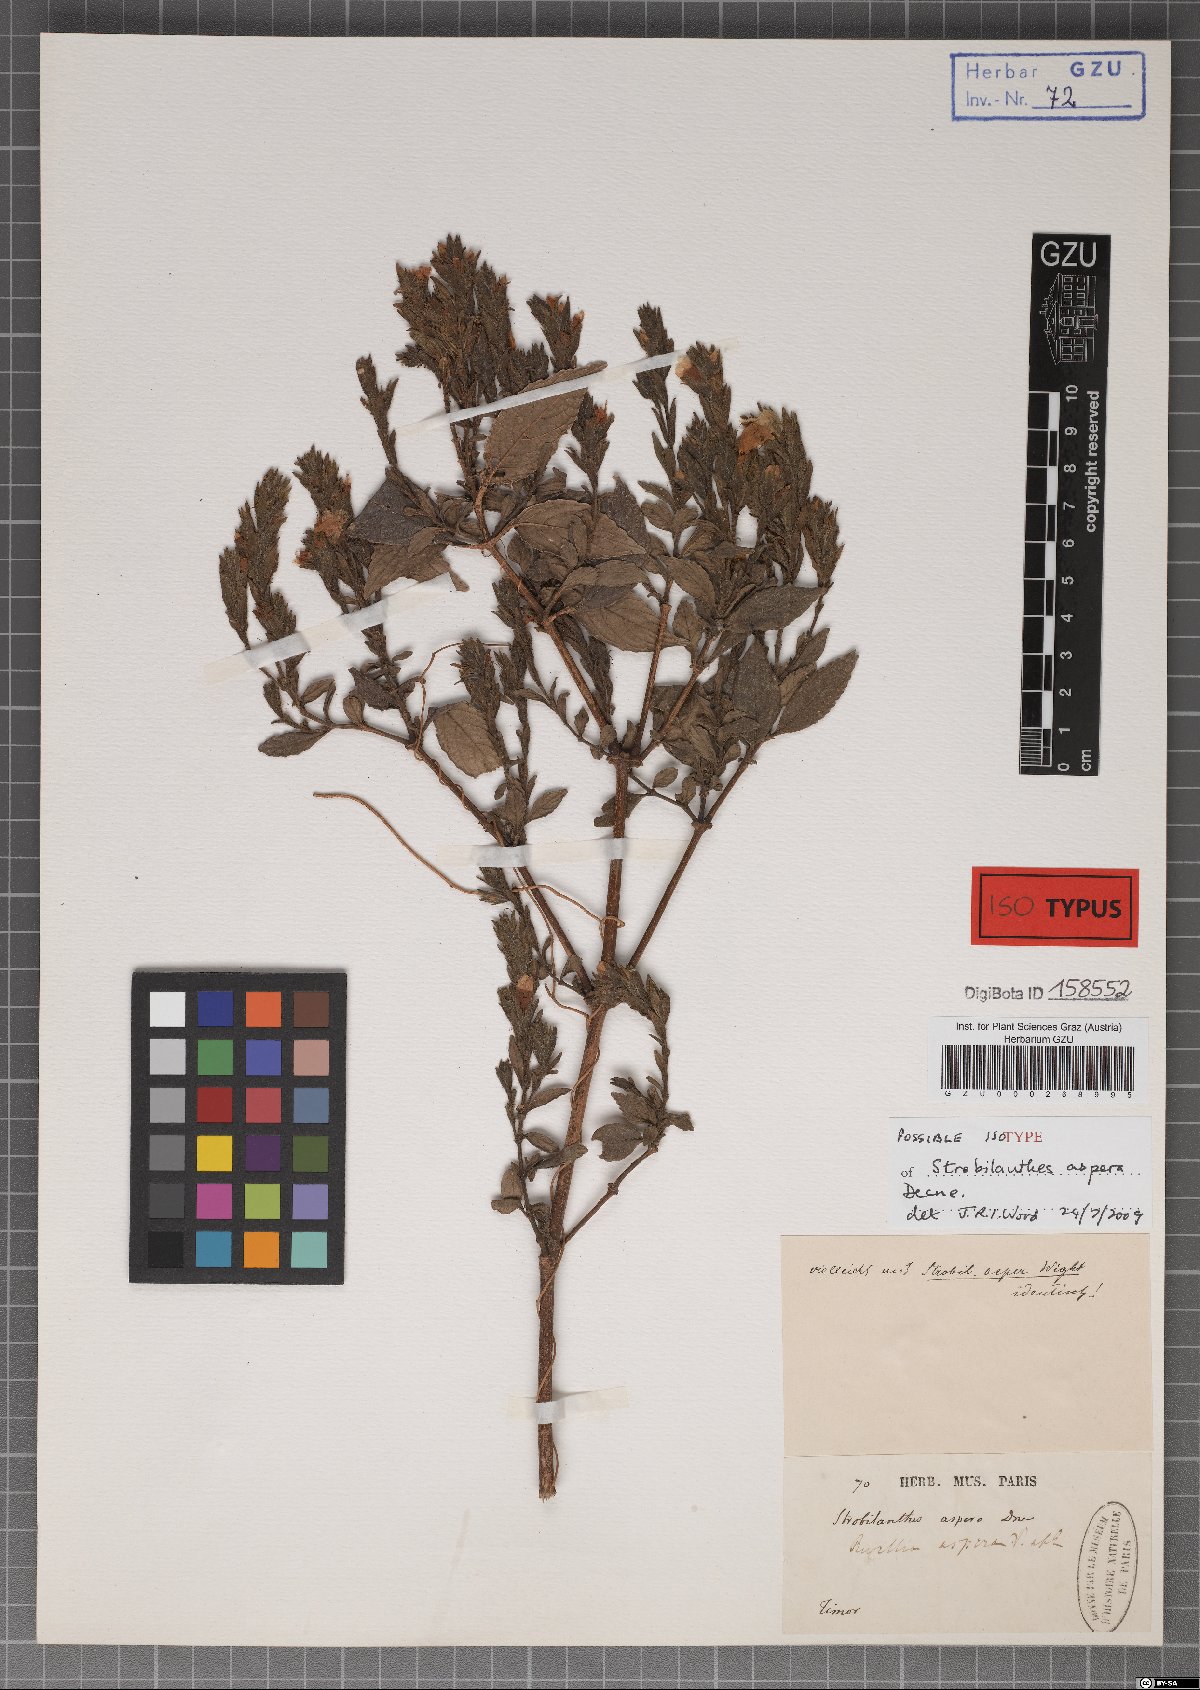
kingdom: Plantae
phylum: Tracheophyta
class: Magnoliopsida
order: Lamiales
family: Acanthaceae
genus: Strobilanthes
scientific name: Strobilanthes scaber
